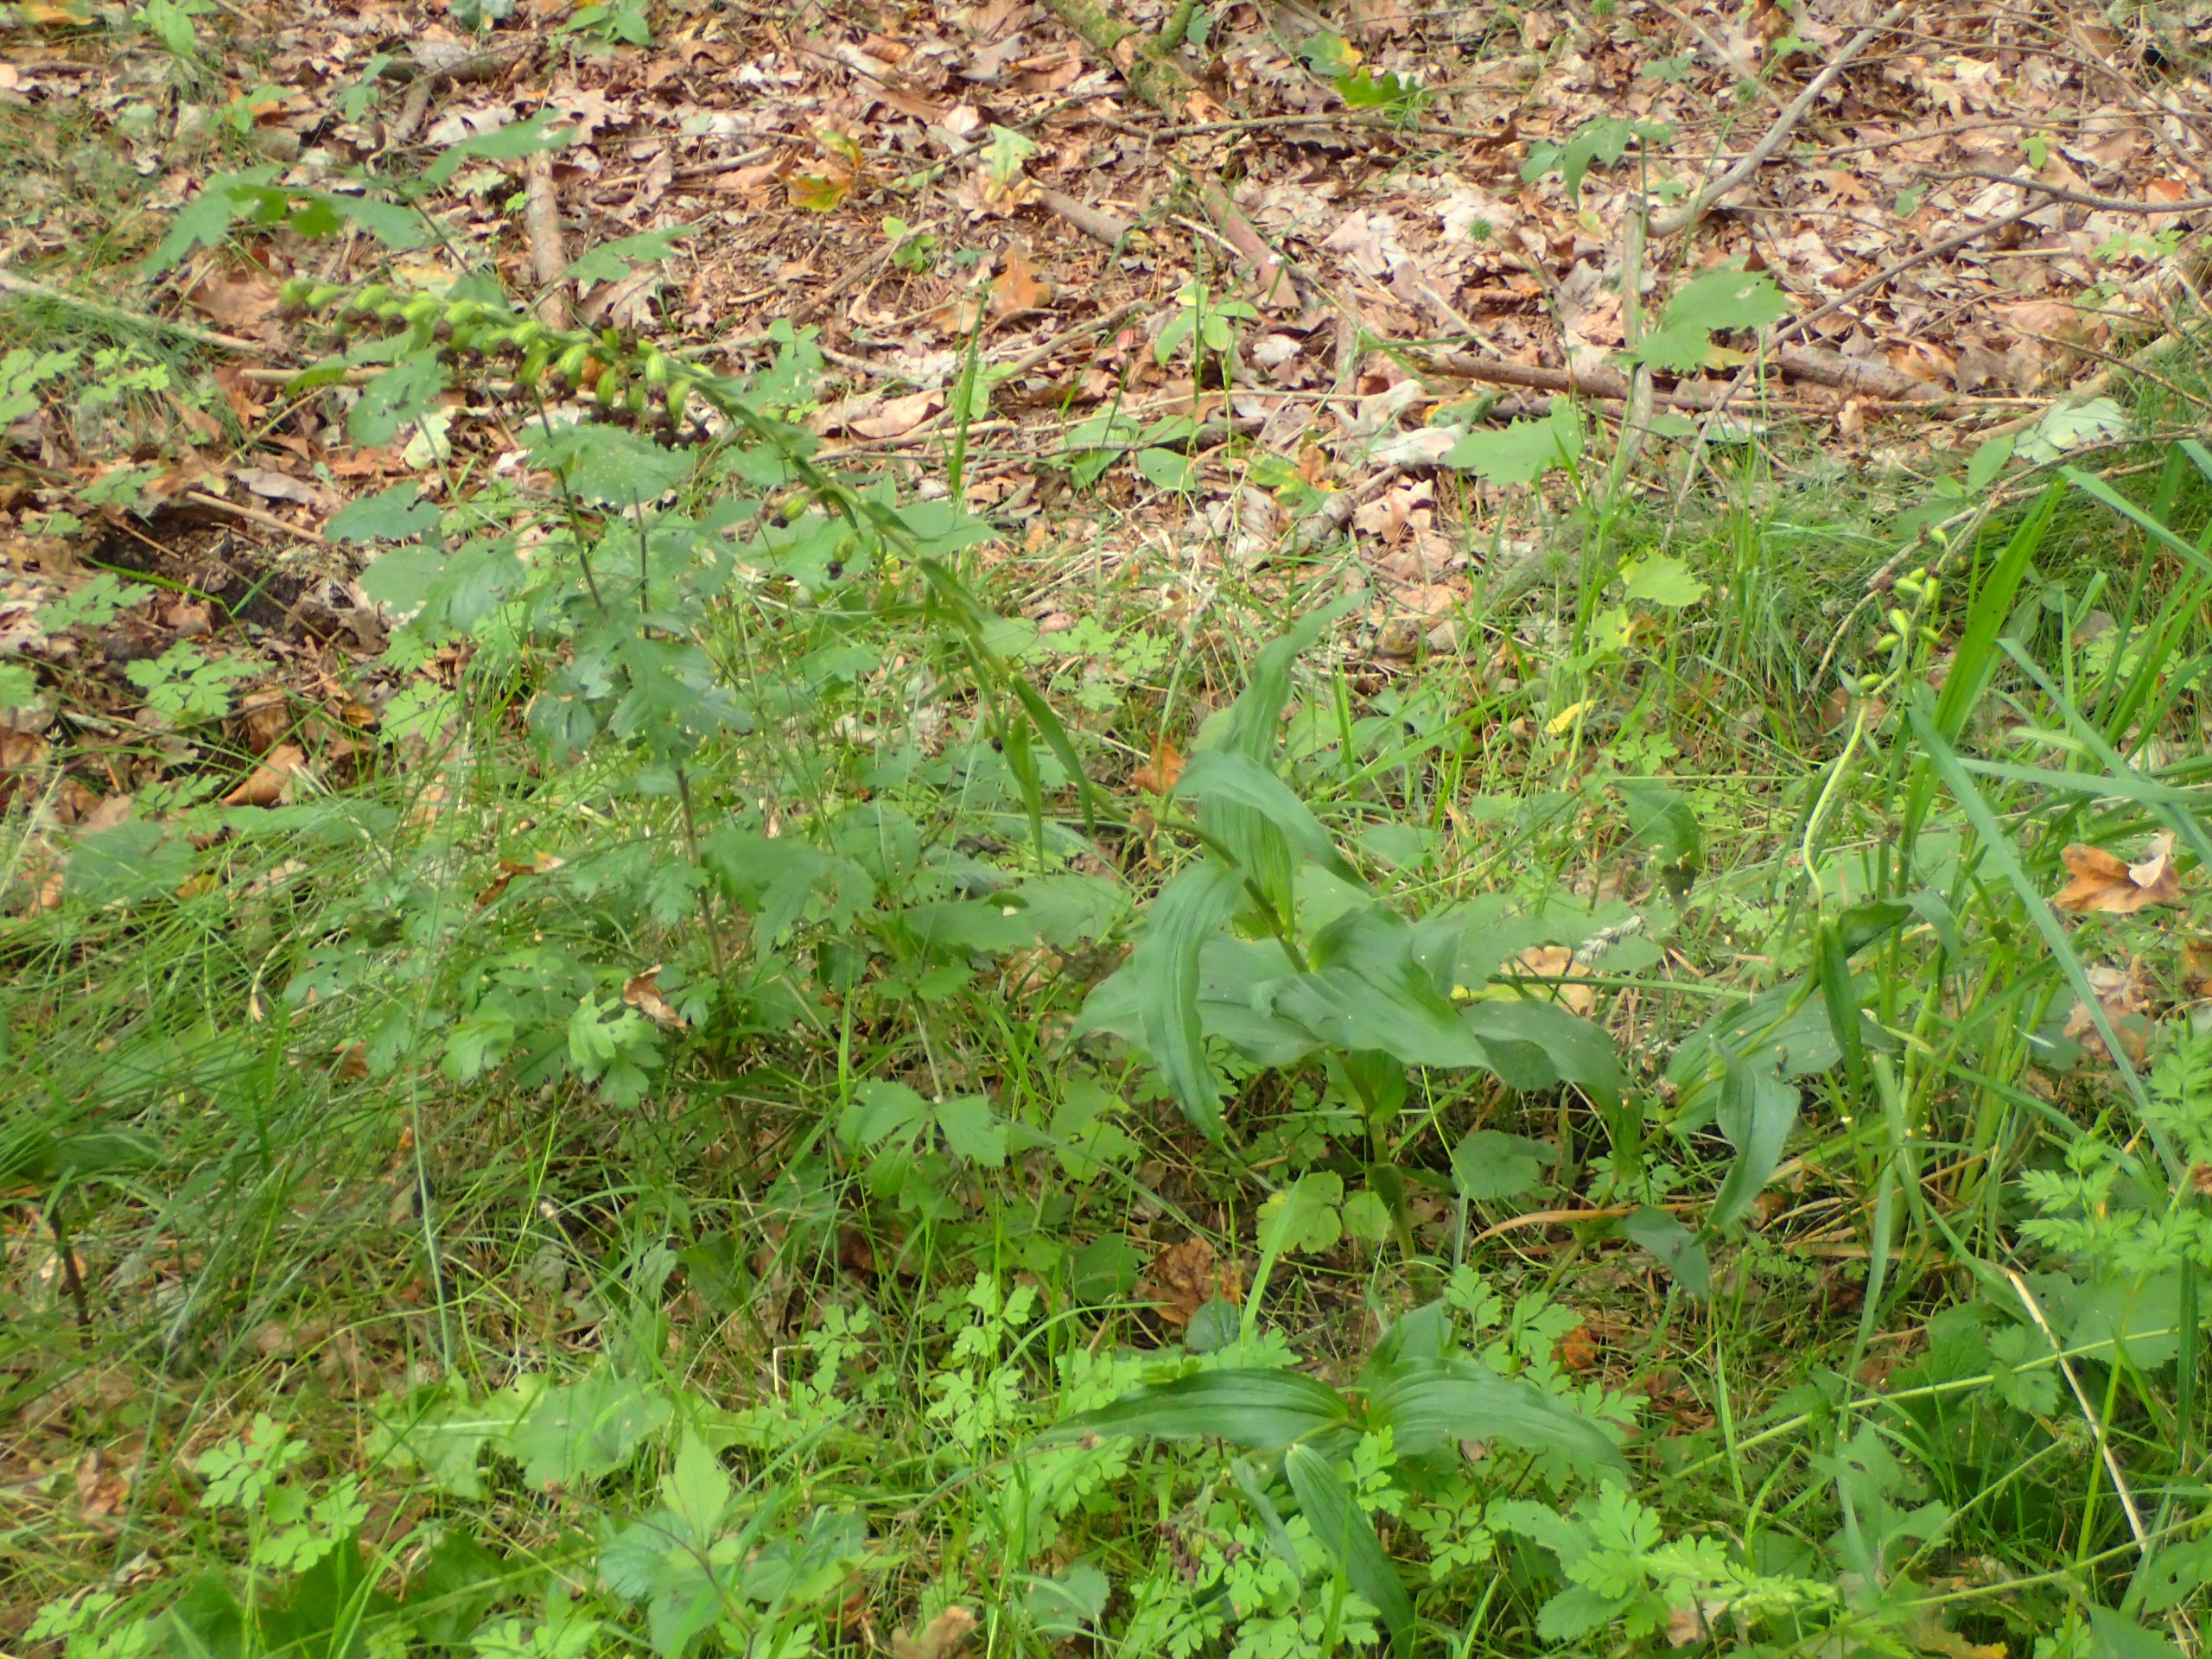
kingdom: Plantae
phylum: Tracheophyta
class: Liliopsida
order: Asparagales
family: Orchidaceae
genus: Epipactis
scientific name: Epipactis helleborine
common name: Skov-hullæbe
